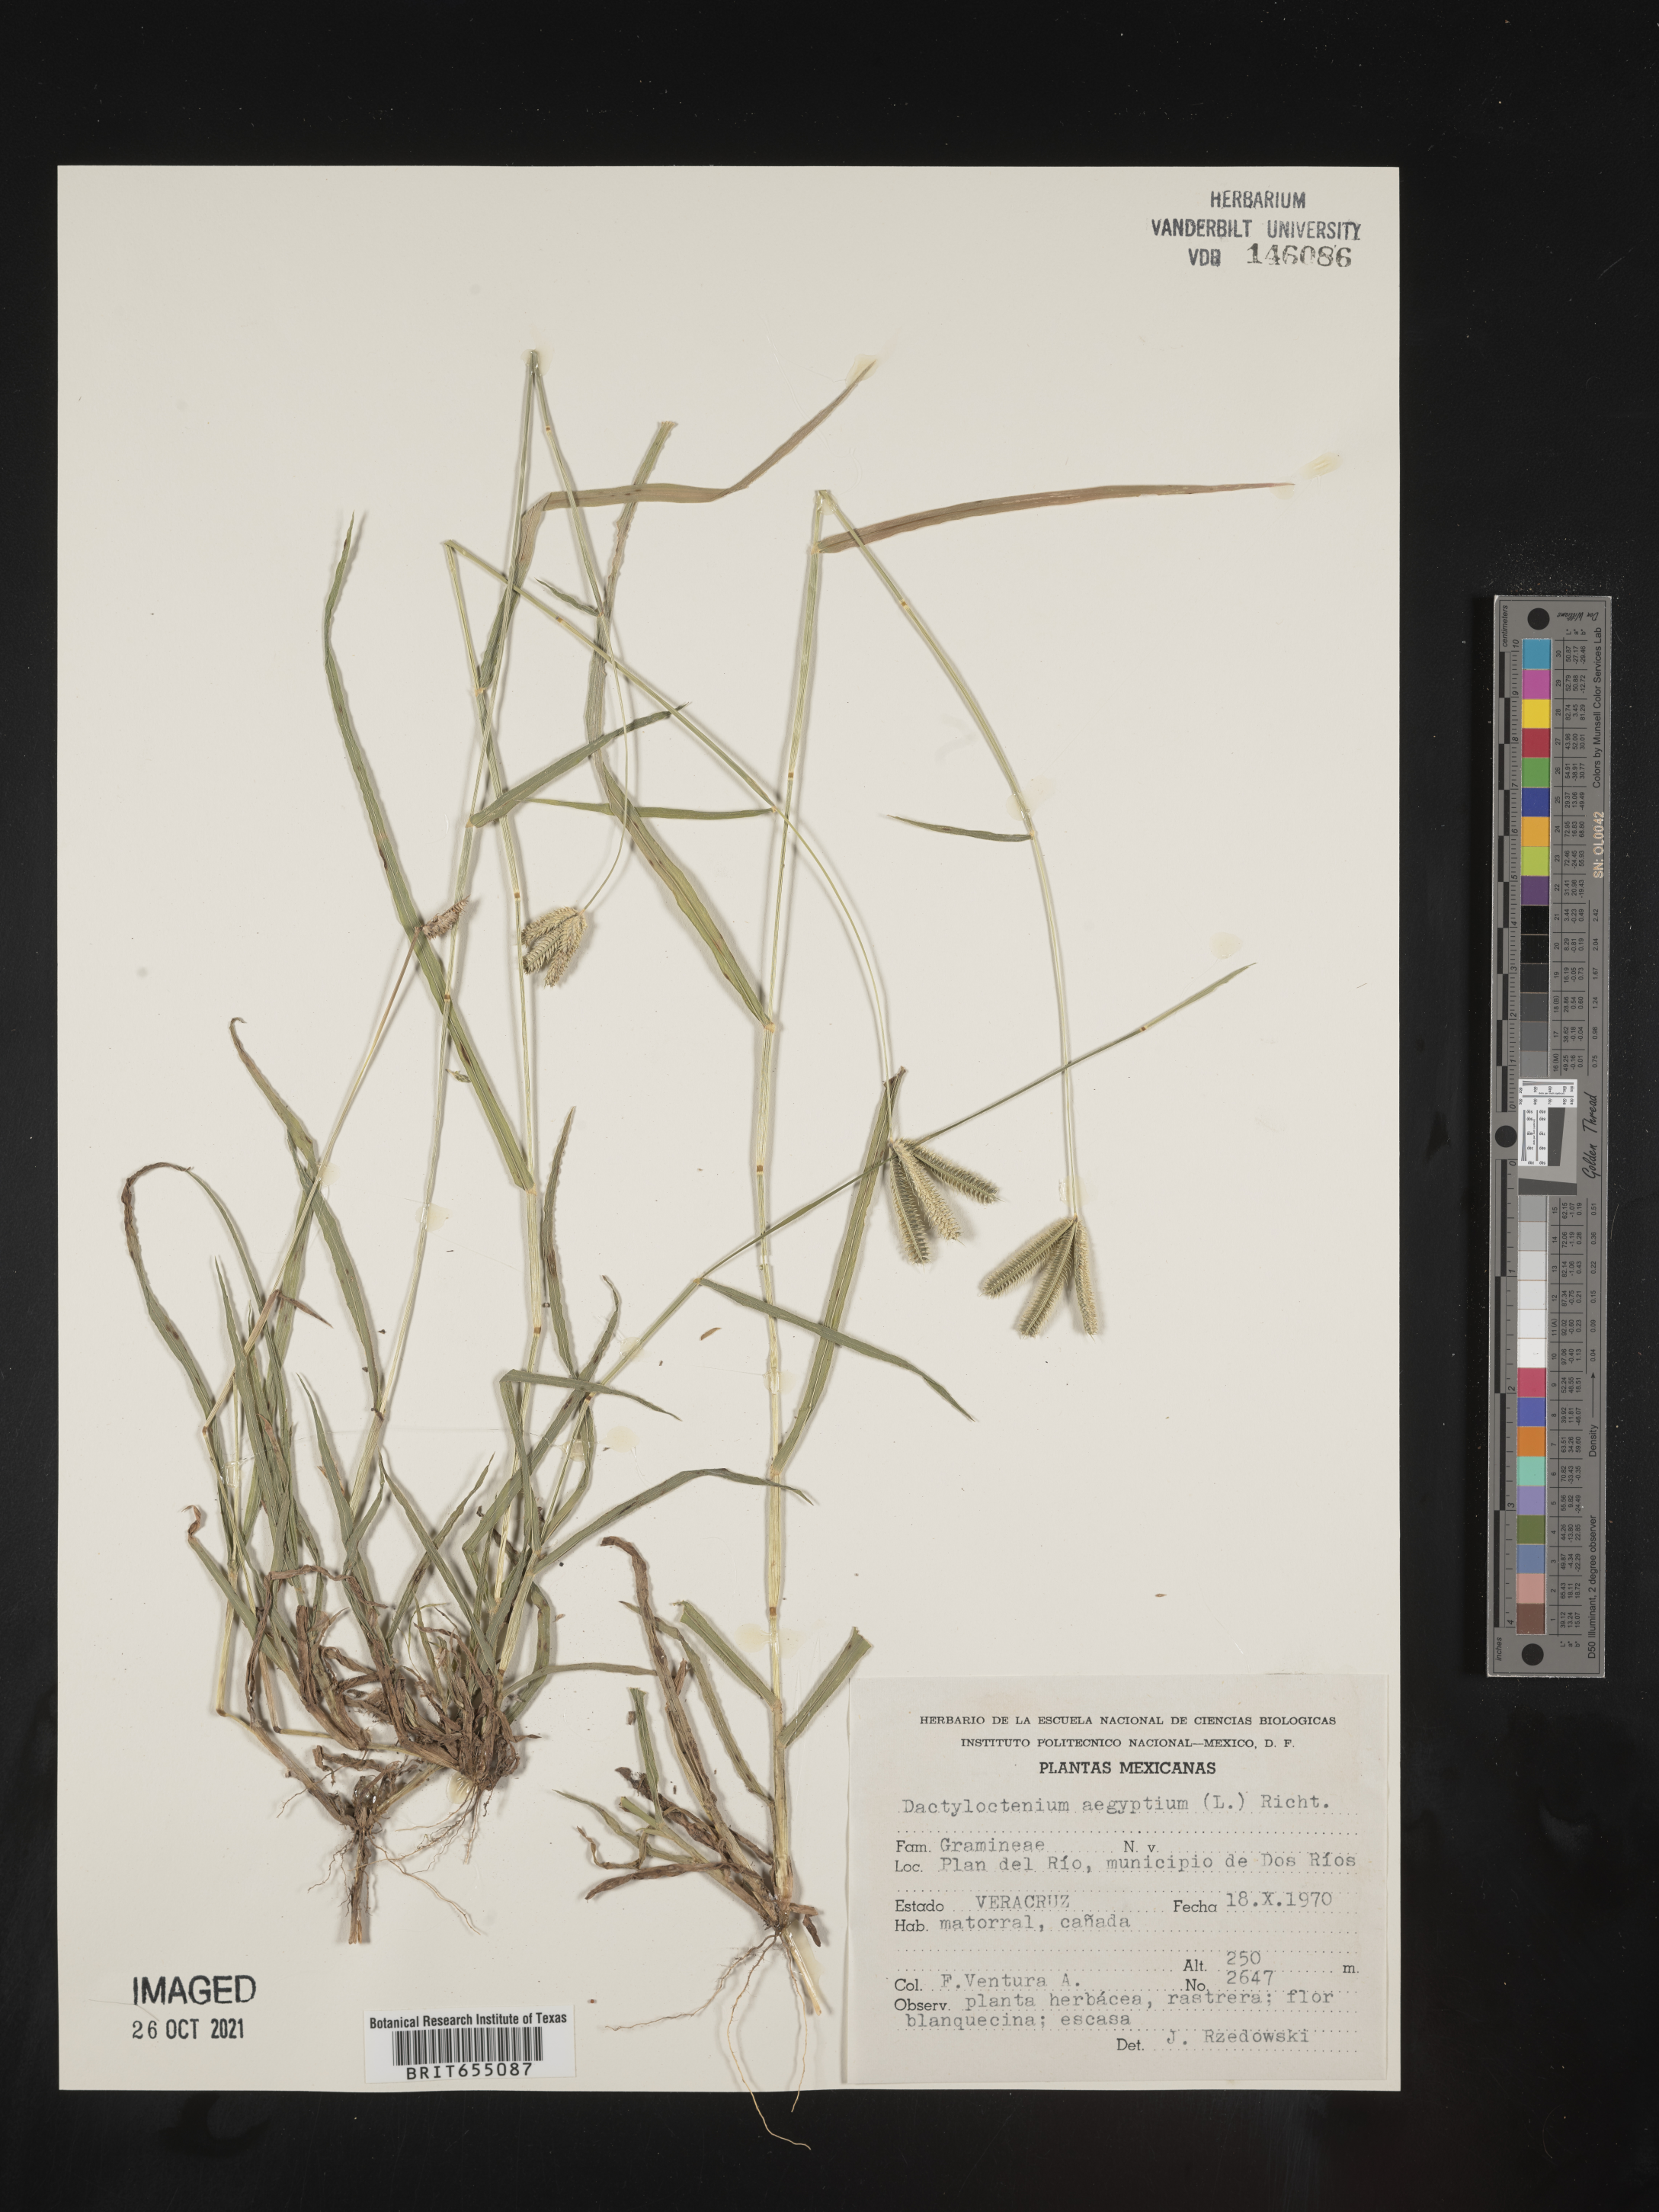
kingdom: Plantae
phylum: Tracheophyta
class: Liliopsida
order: Poales
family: Poaceae
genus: Dactyloctenium
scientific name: Dactyloctenium
